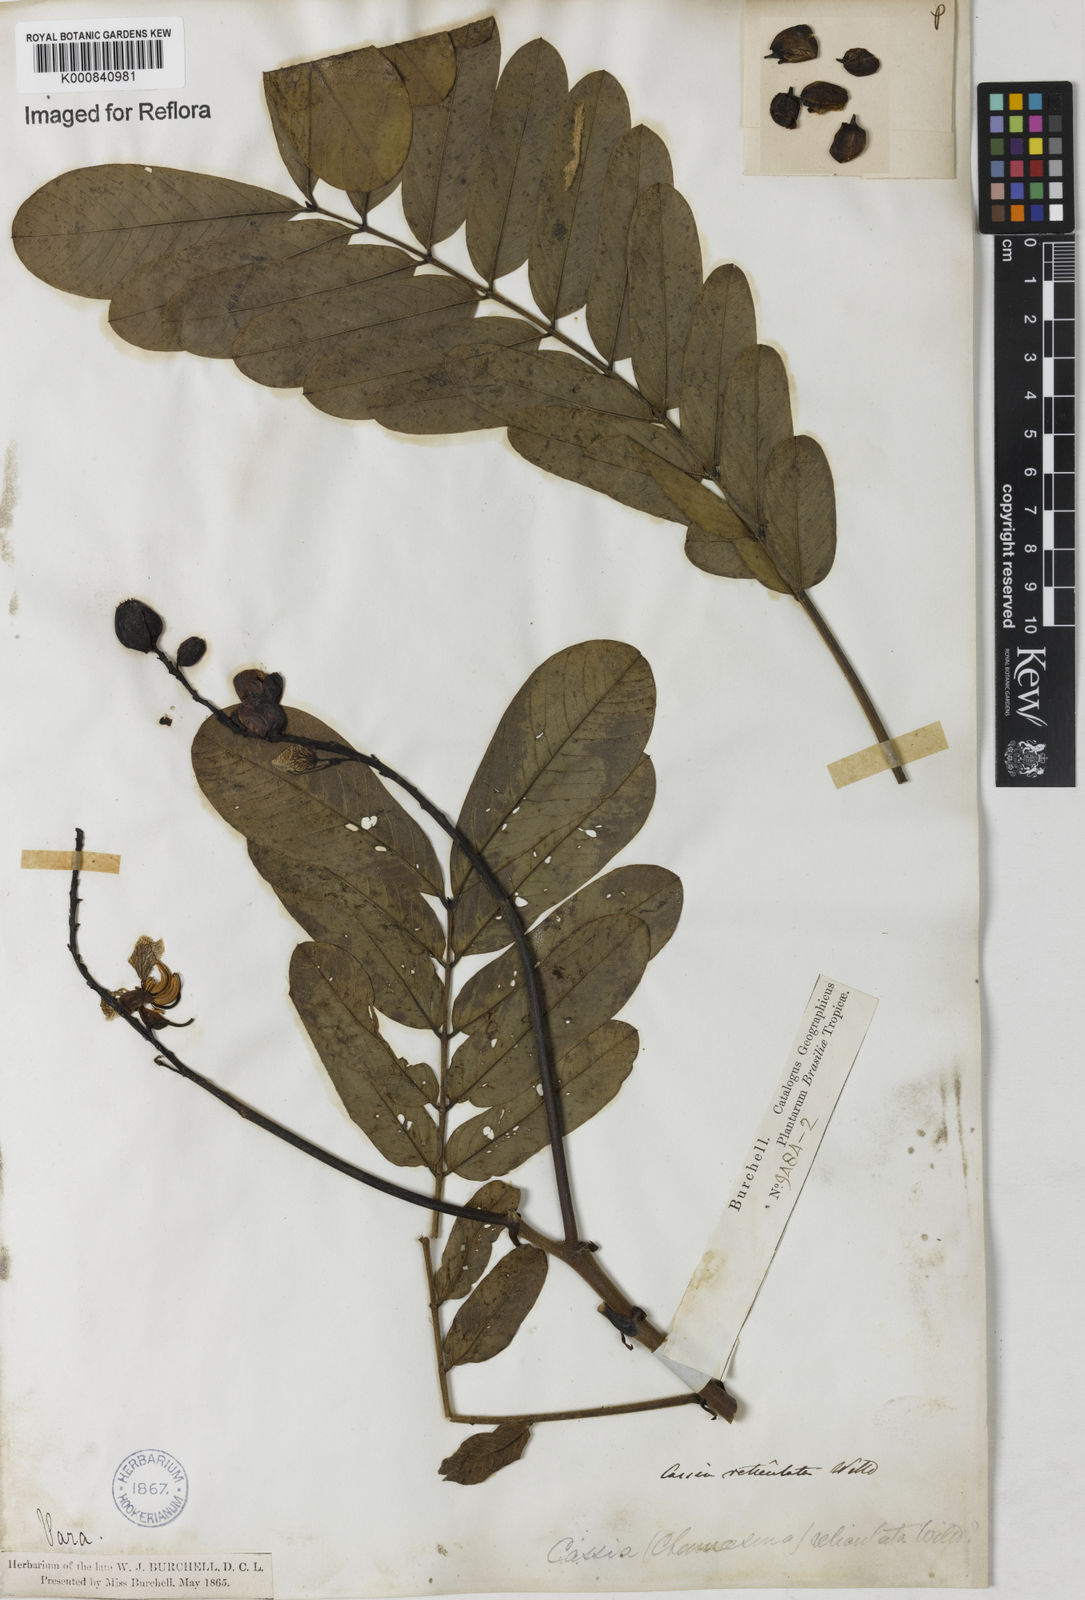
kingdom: Plantae
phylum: Tracheophyta
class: Magnoliopsida
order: Fabales
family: Fabaceae
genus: Senna
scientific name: Senna reticulata
